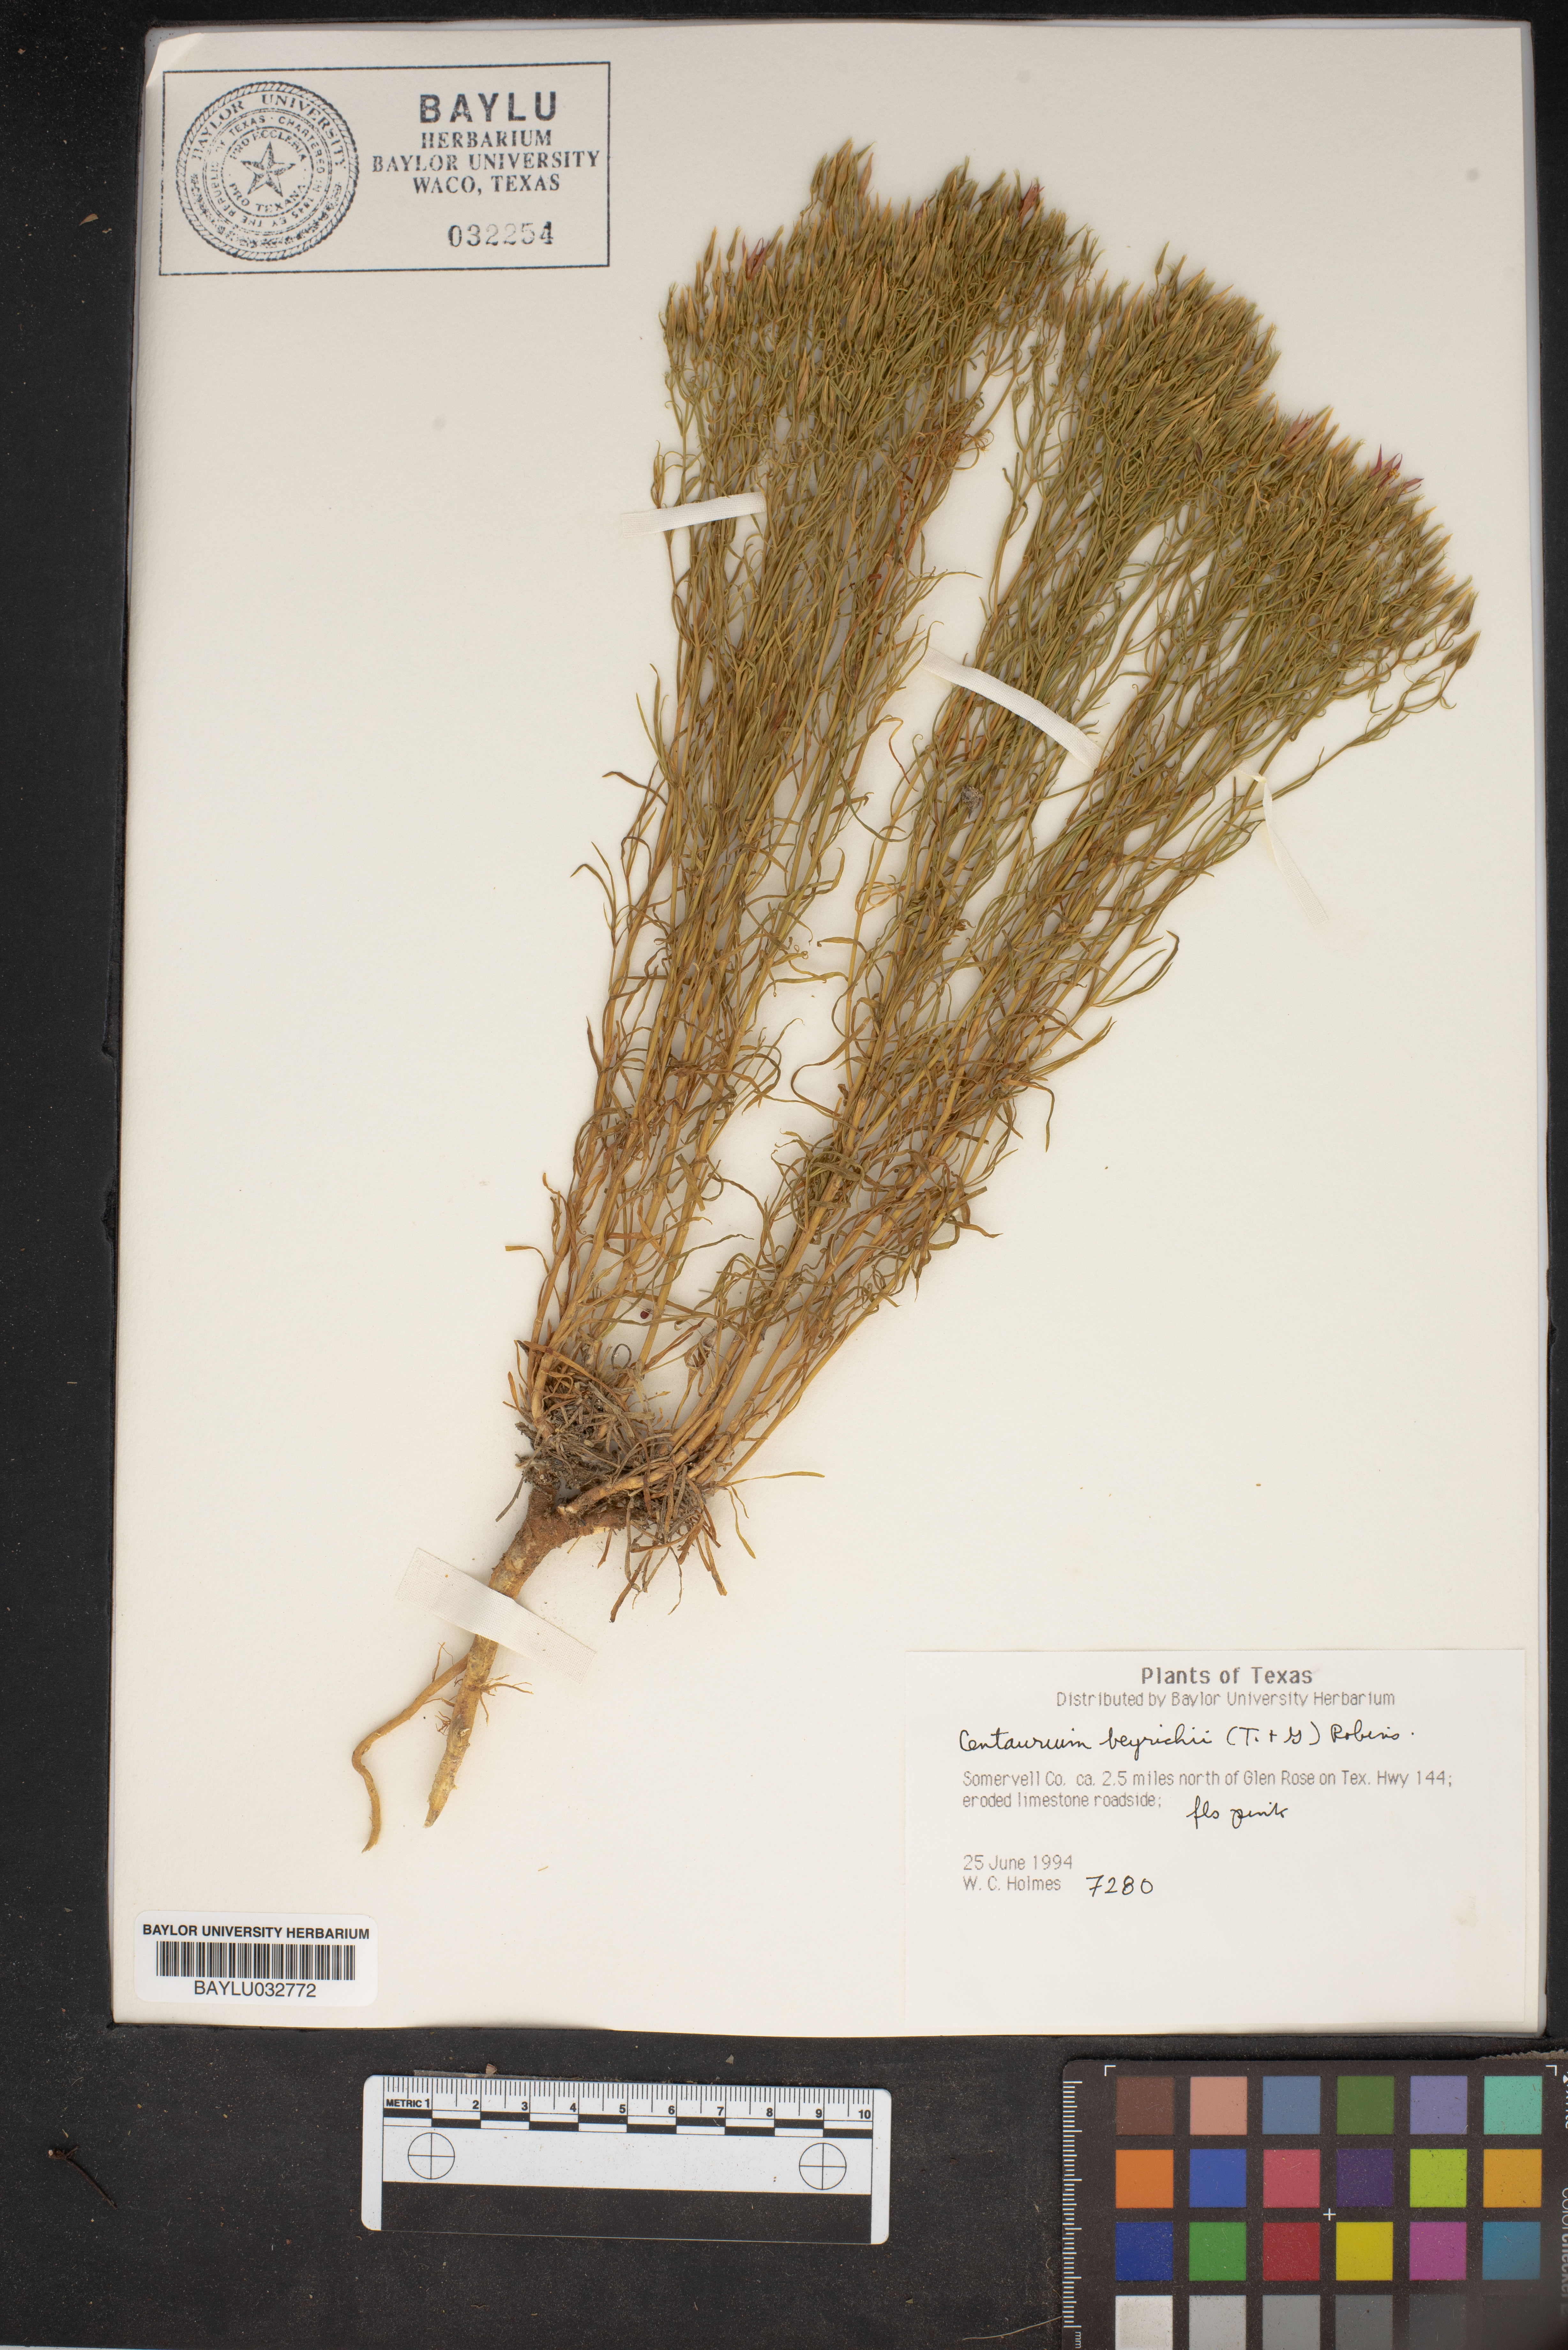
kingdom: Plantae
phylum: Tracheophyta
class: Magnoliopsida
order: Gentianales
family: Gentianaceae
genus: Zeltnera
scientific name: Zeltnera beyrichii
